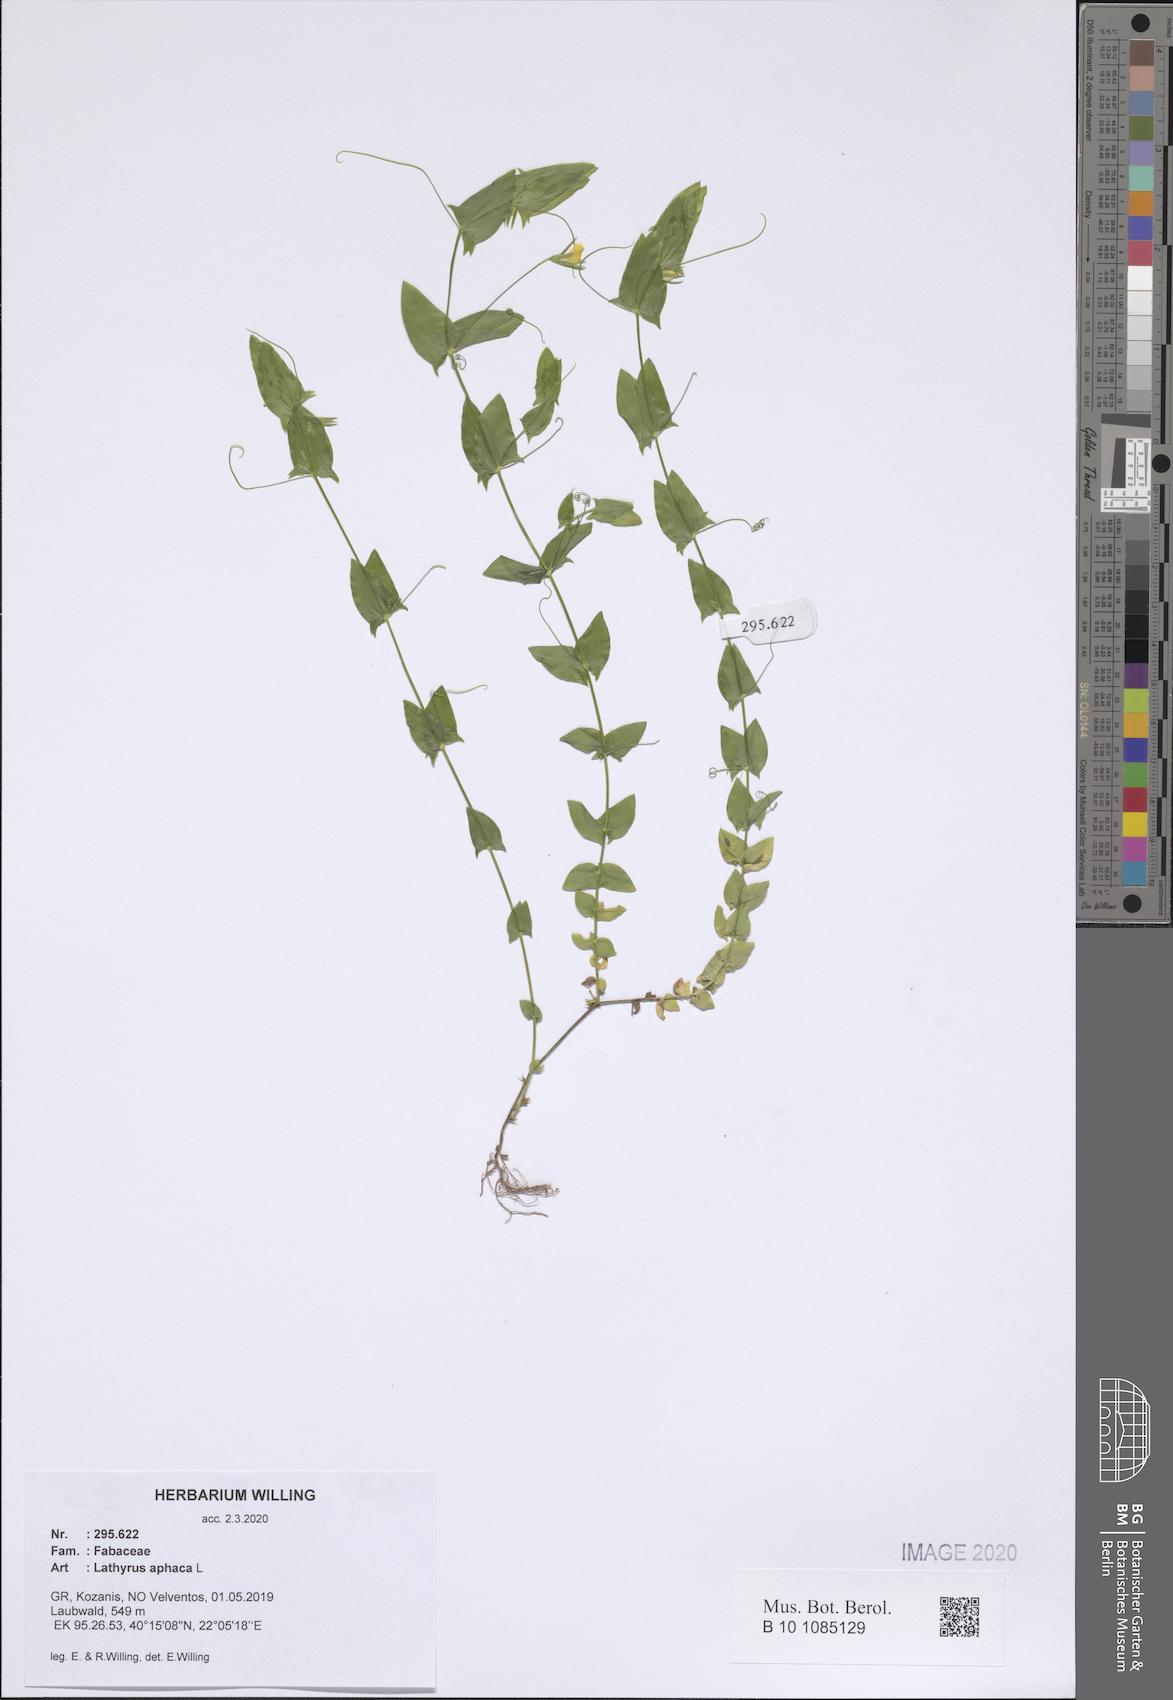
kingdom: Plantae
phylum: Tracheophyta
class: Magnoliopsida
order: Fabales
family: Fabaceae
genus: Lathyrus
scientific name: Lathyrus aphaca
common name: Yellow vetchling
